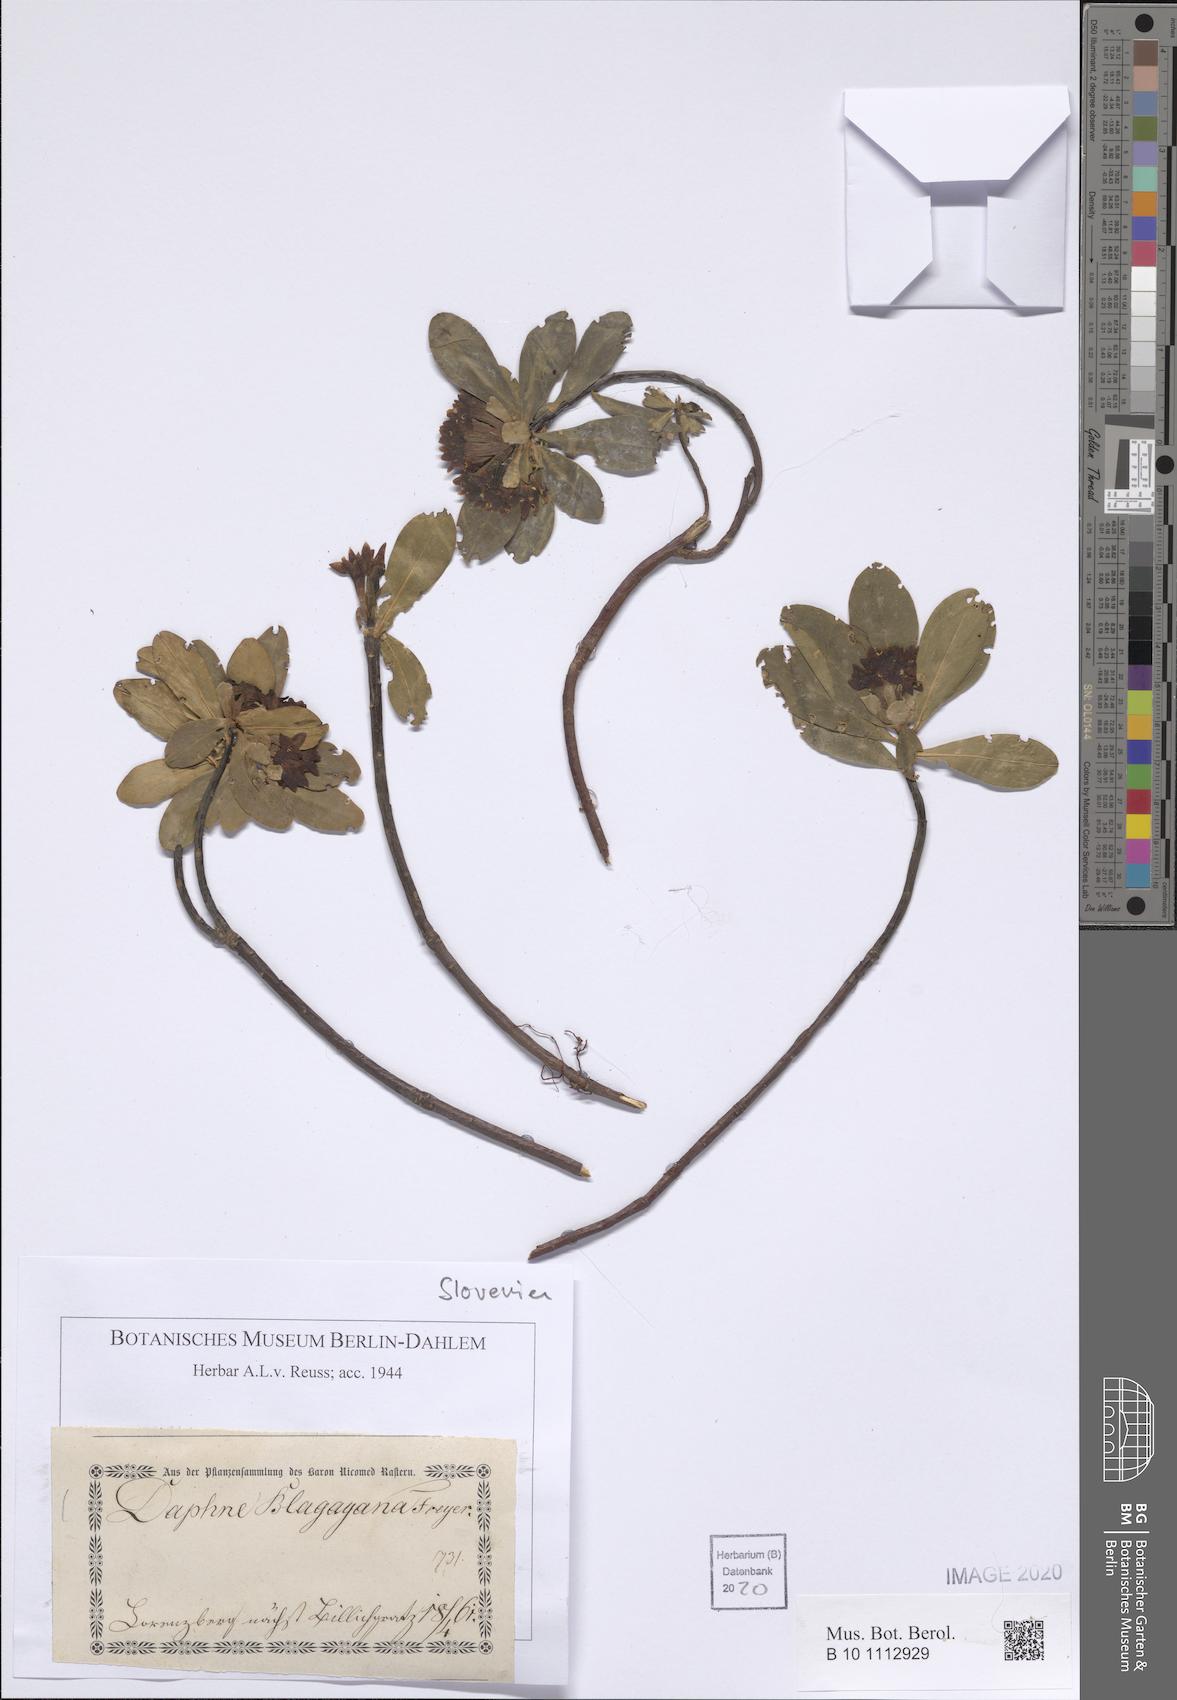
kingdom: Plantae
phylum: Tracheophyta
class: Magnoliopsida
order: Malvales
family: Thymelaeaceae
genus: Daphne
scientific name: Daphne blagayana
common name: Balkan daphne
